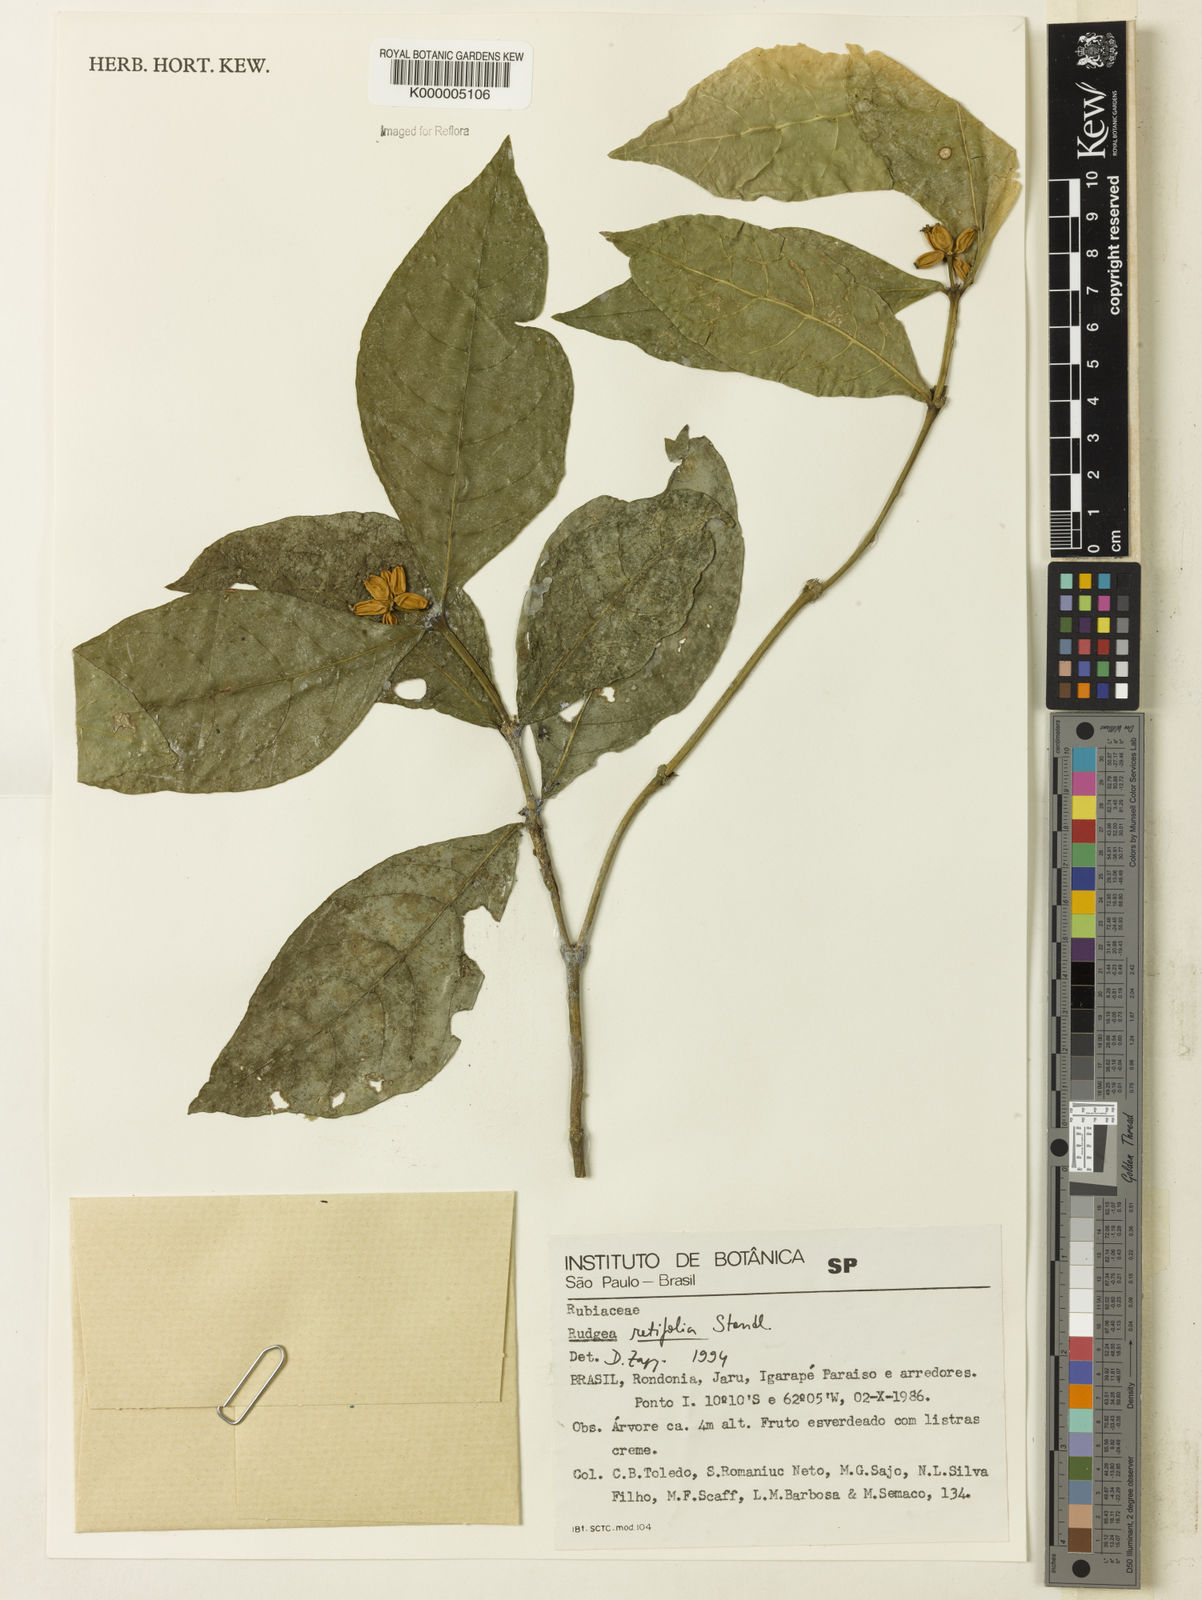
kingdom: Plantae
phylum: Tracheophyta
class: Magnoliopsida
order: Gentianales
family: Rubiaceae
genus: Rudgea
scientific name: Rudgea guianensis
